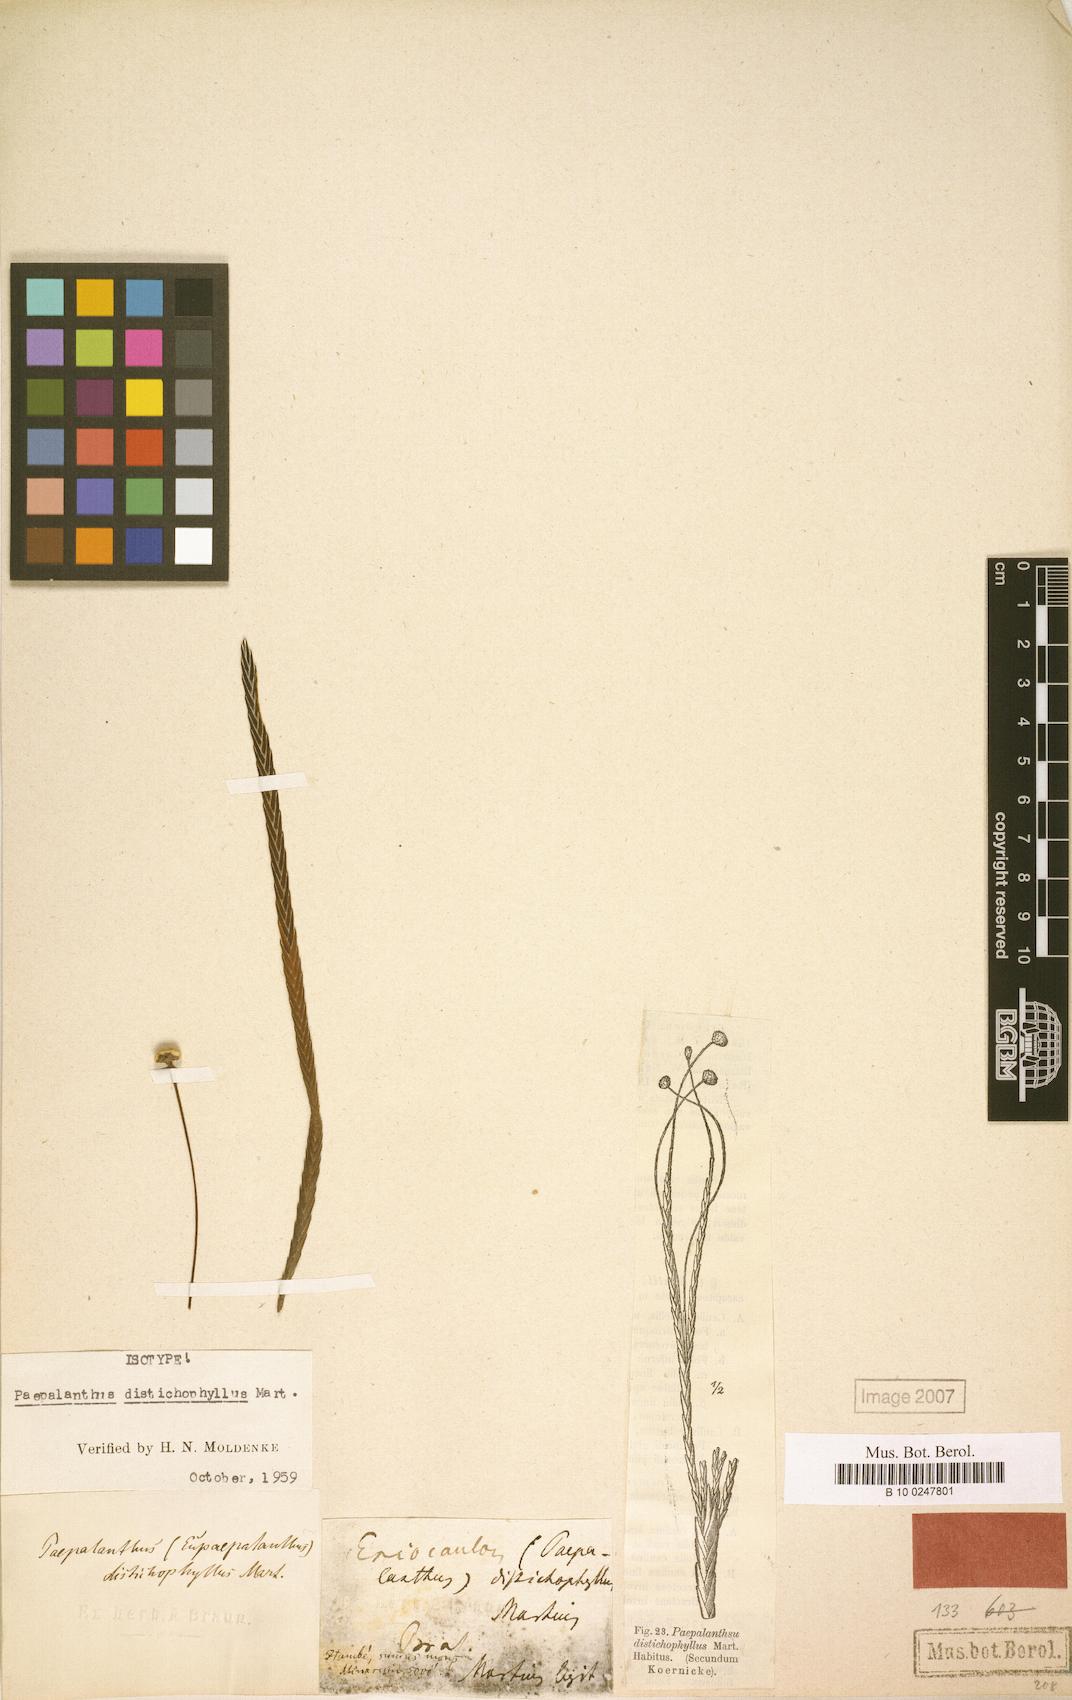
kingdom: Plantae
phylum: Tracheophyta
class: Liliopsida
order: Poales
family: Eriocaulaceae
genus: Paepalanthus
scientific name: Paepalanthus distichophyllus
